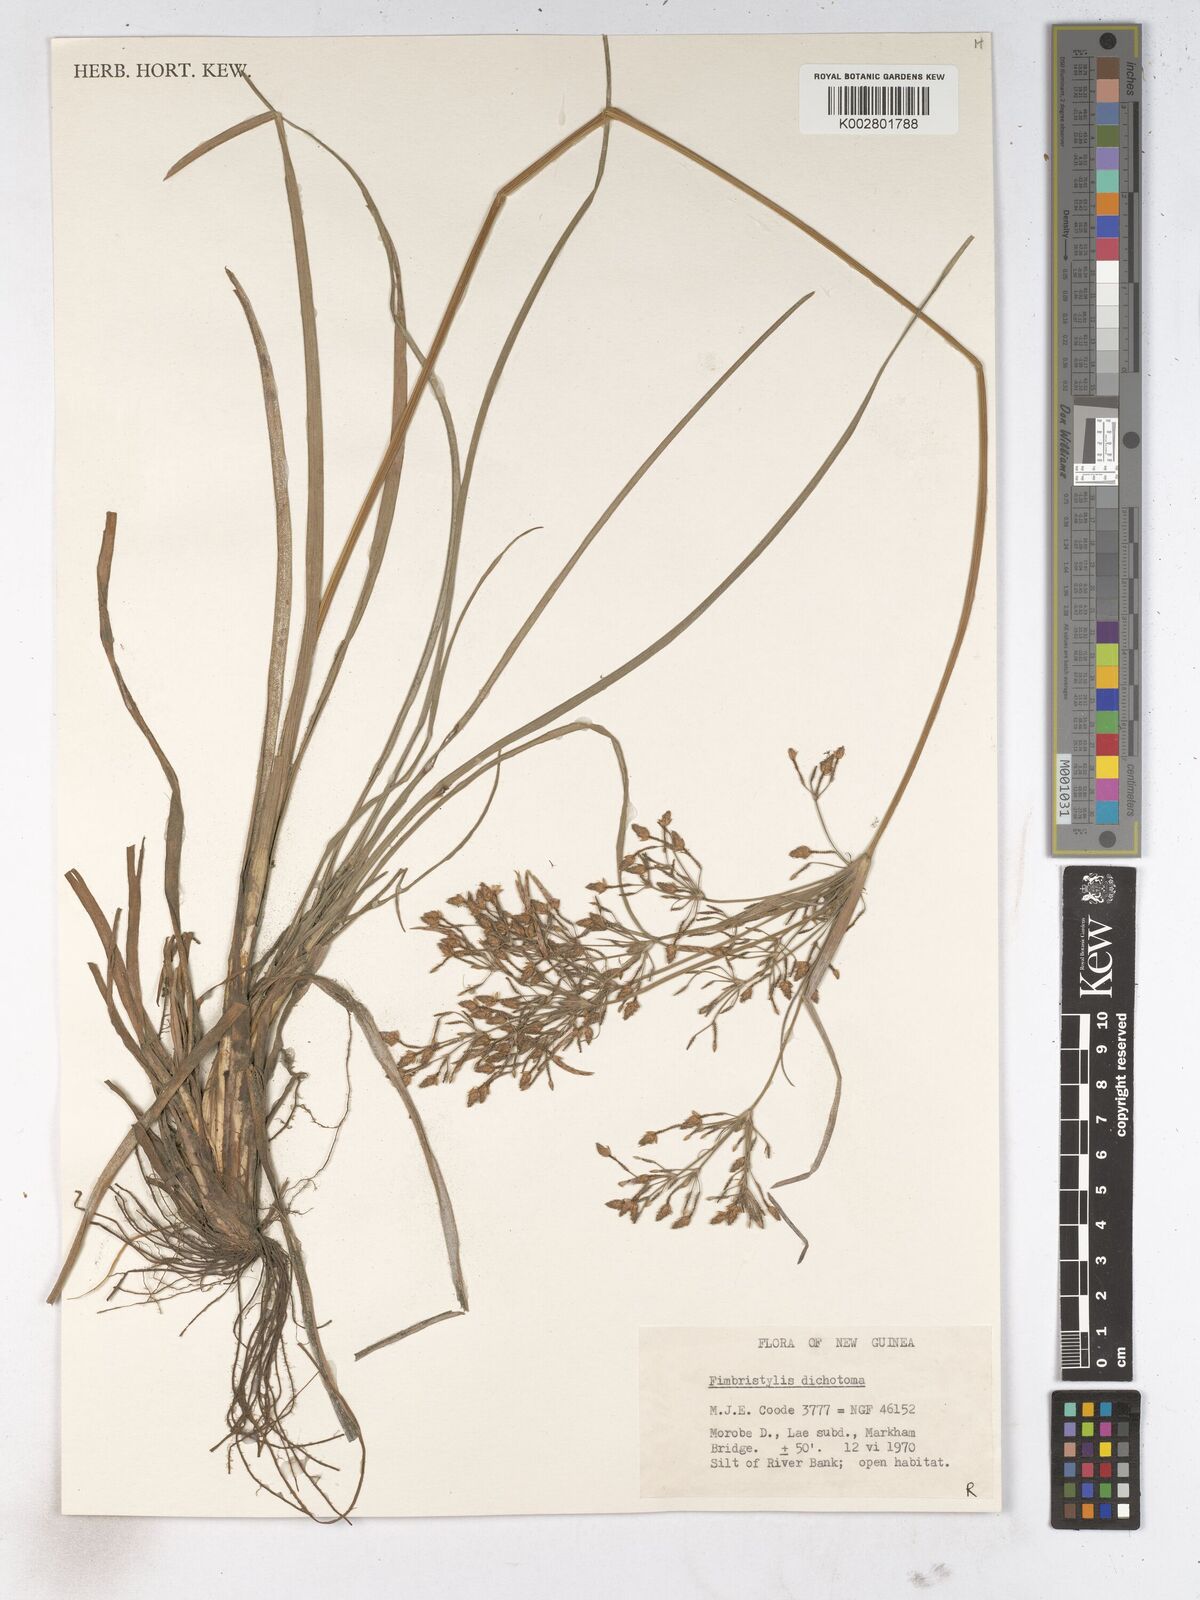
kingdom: Plantae
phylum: Tracheophyta
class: Liliopsida
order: Poales
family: Cyperaceae
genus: Fimbristylis
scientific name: Fimbristylis dichotoma
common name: Forked fimbry
